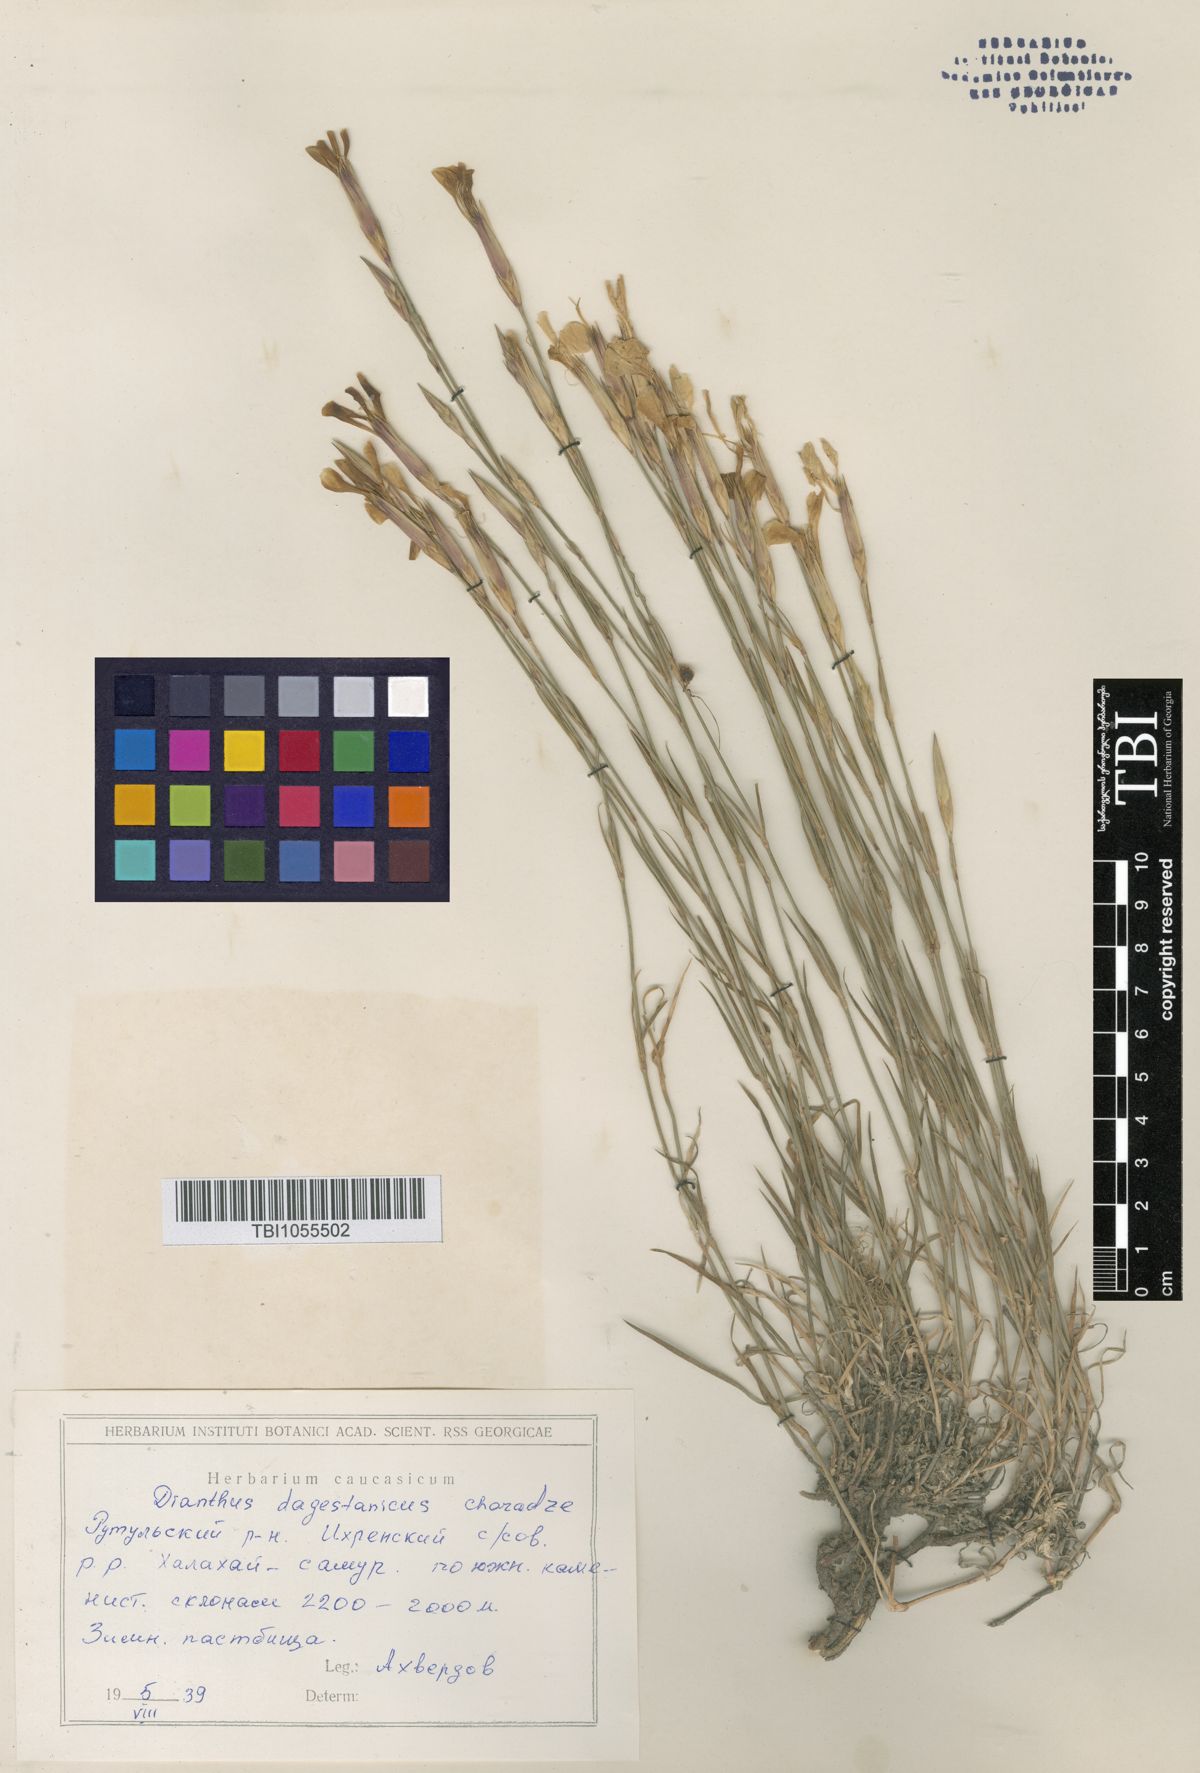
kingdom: Plantae
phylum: Tracheophyta
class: Magnoliopsida
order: Caryophyllales
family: Caryophyllaceae
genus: Dianthus
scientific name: Dianthus daghestanicus
